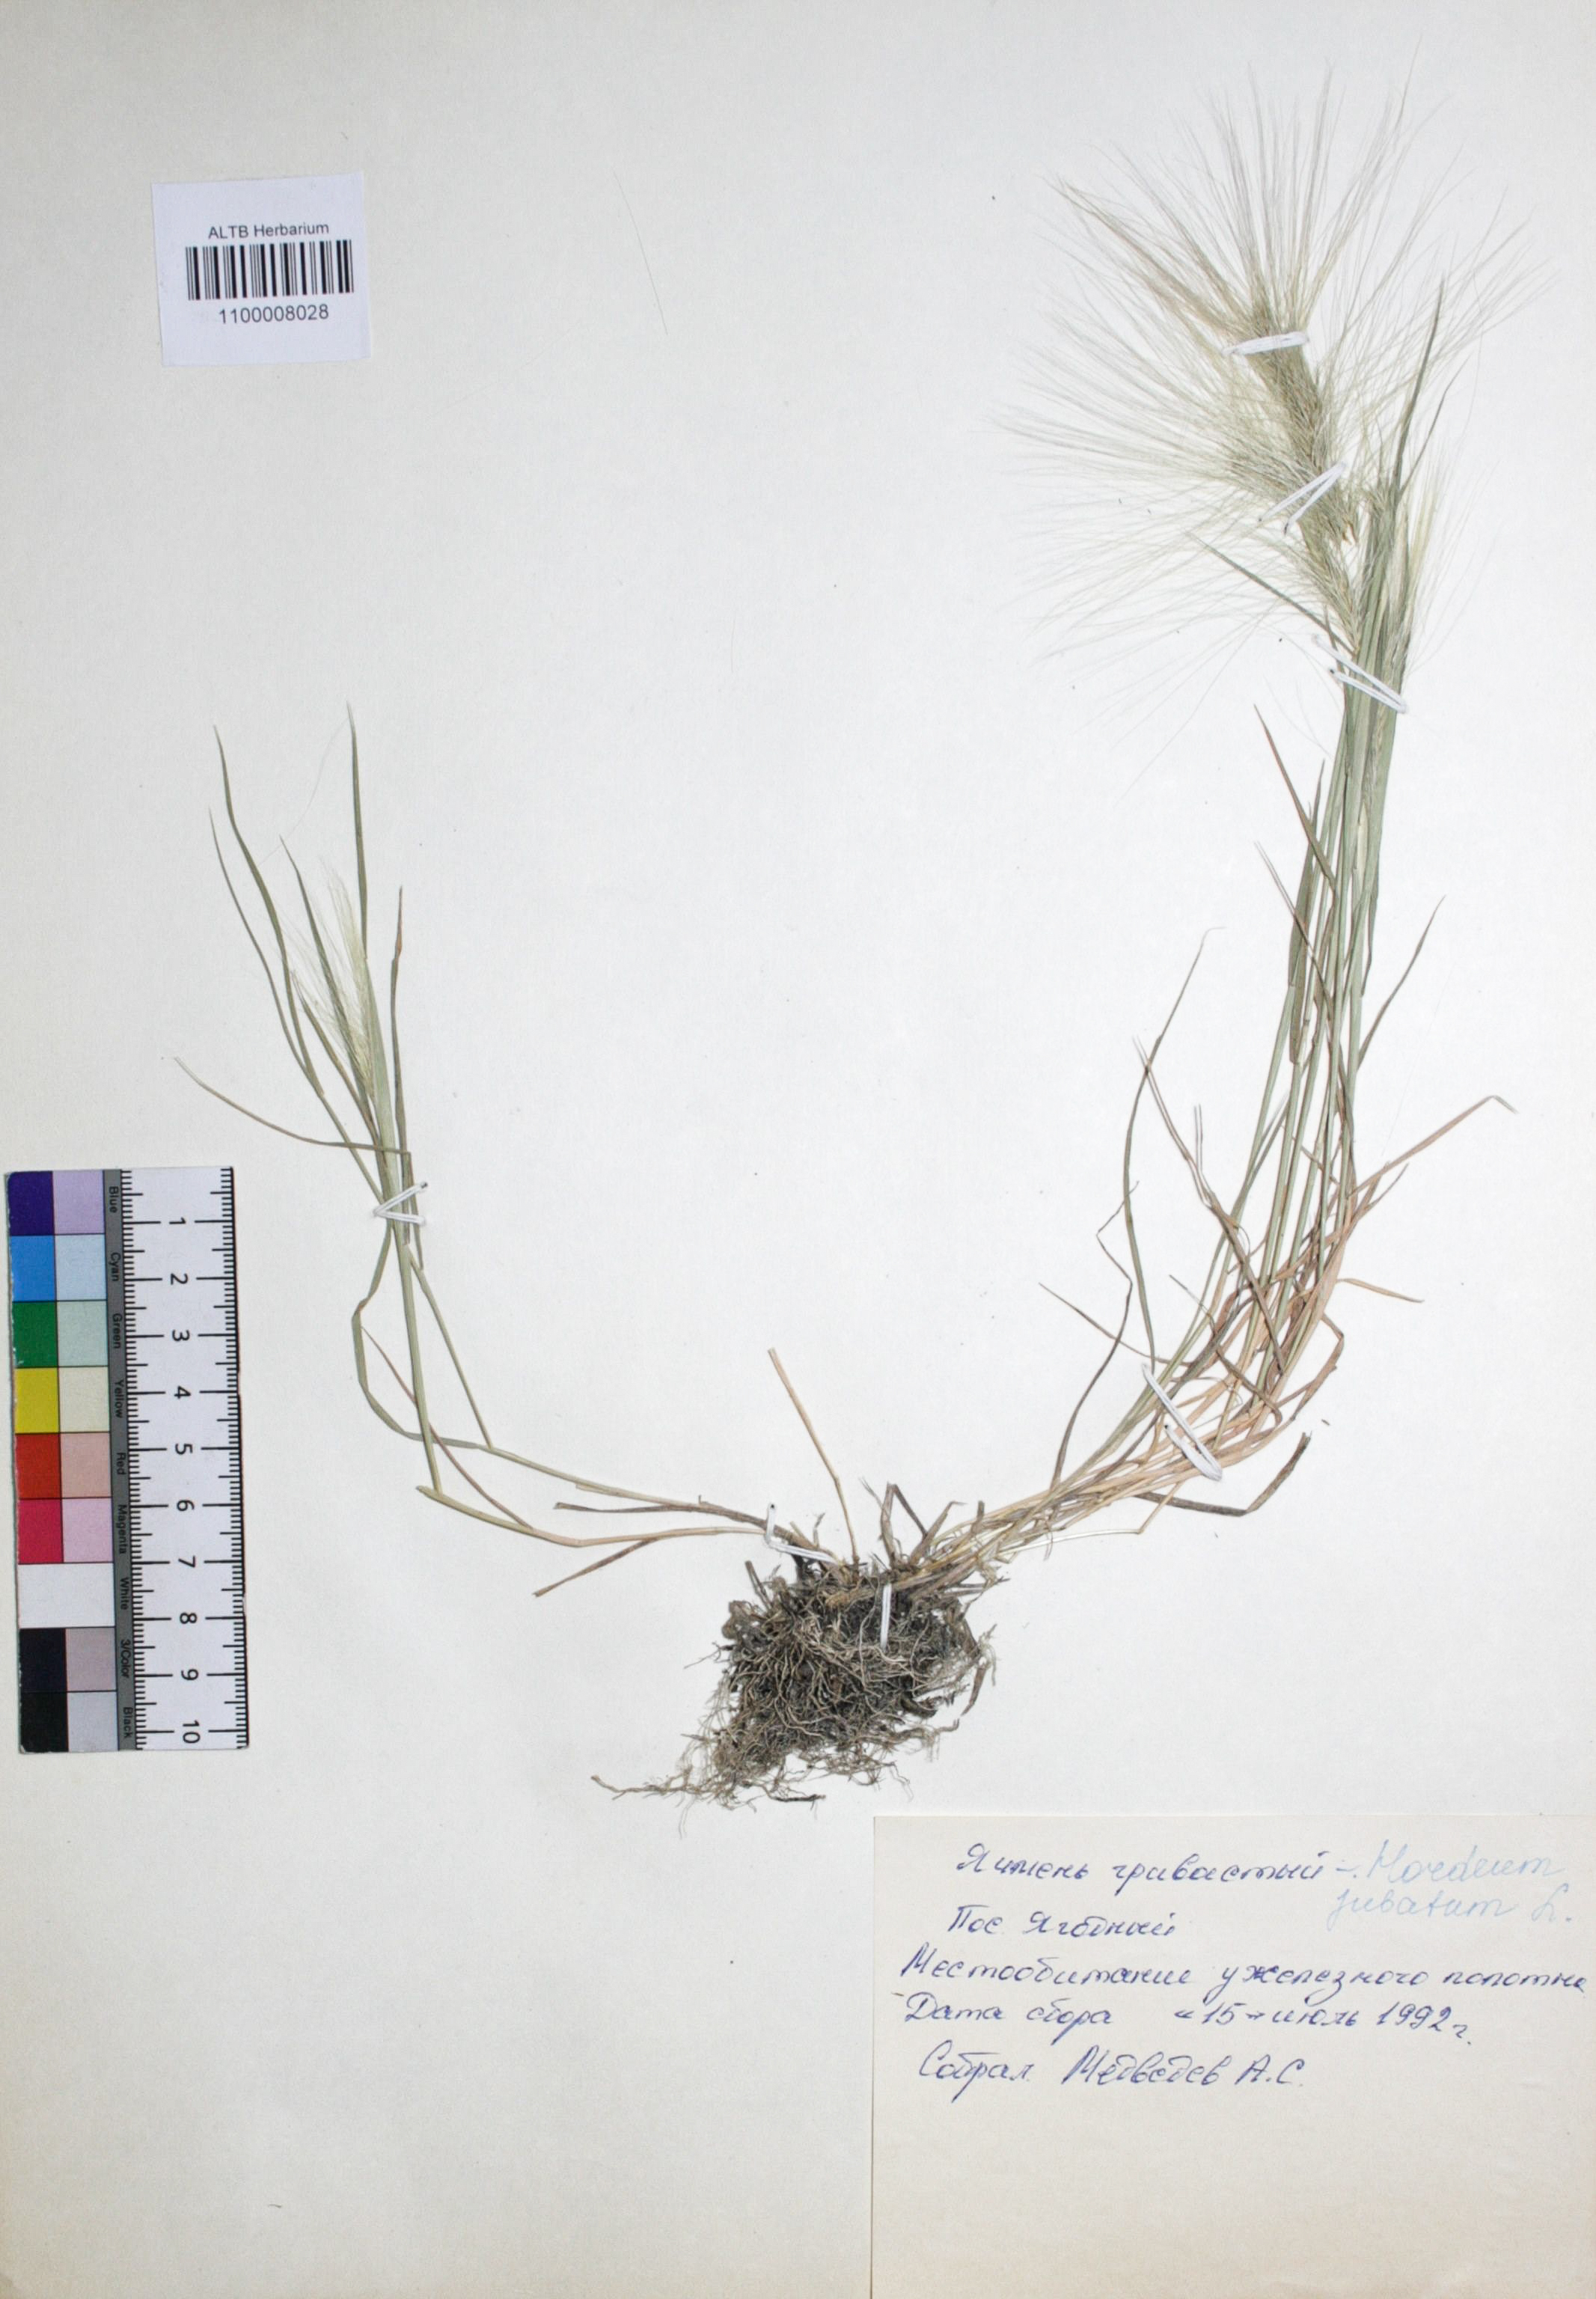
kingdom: Plantae
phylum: Tracheophyta
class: Liliopsida
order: Poales
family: Poaceae
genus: Hordeum
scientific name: Hordeum jubatum
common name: Foxtail barley
